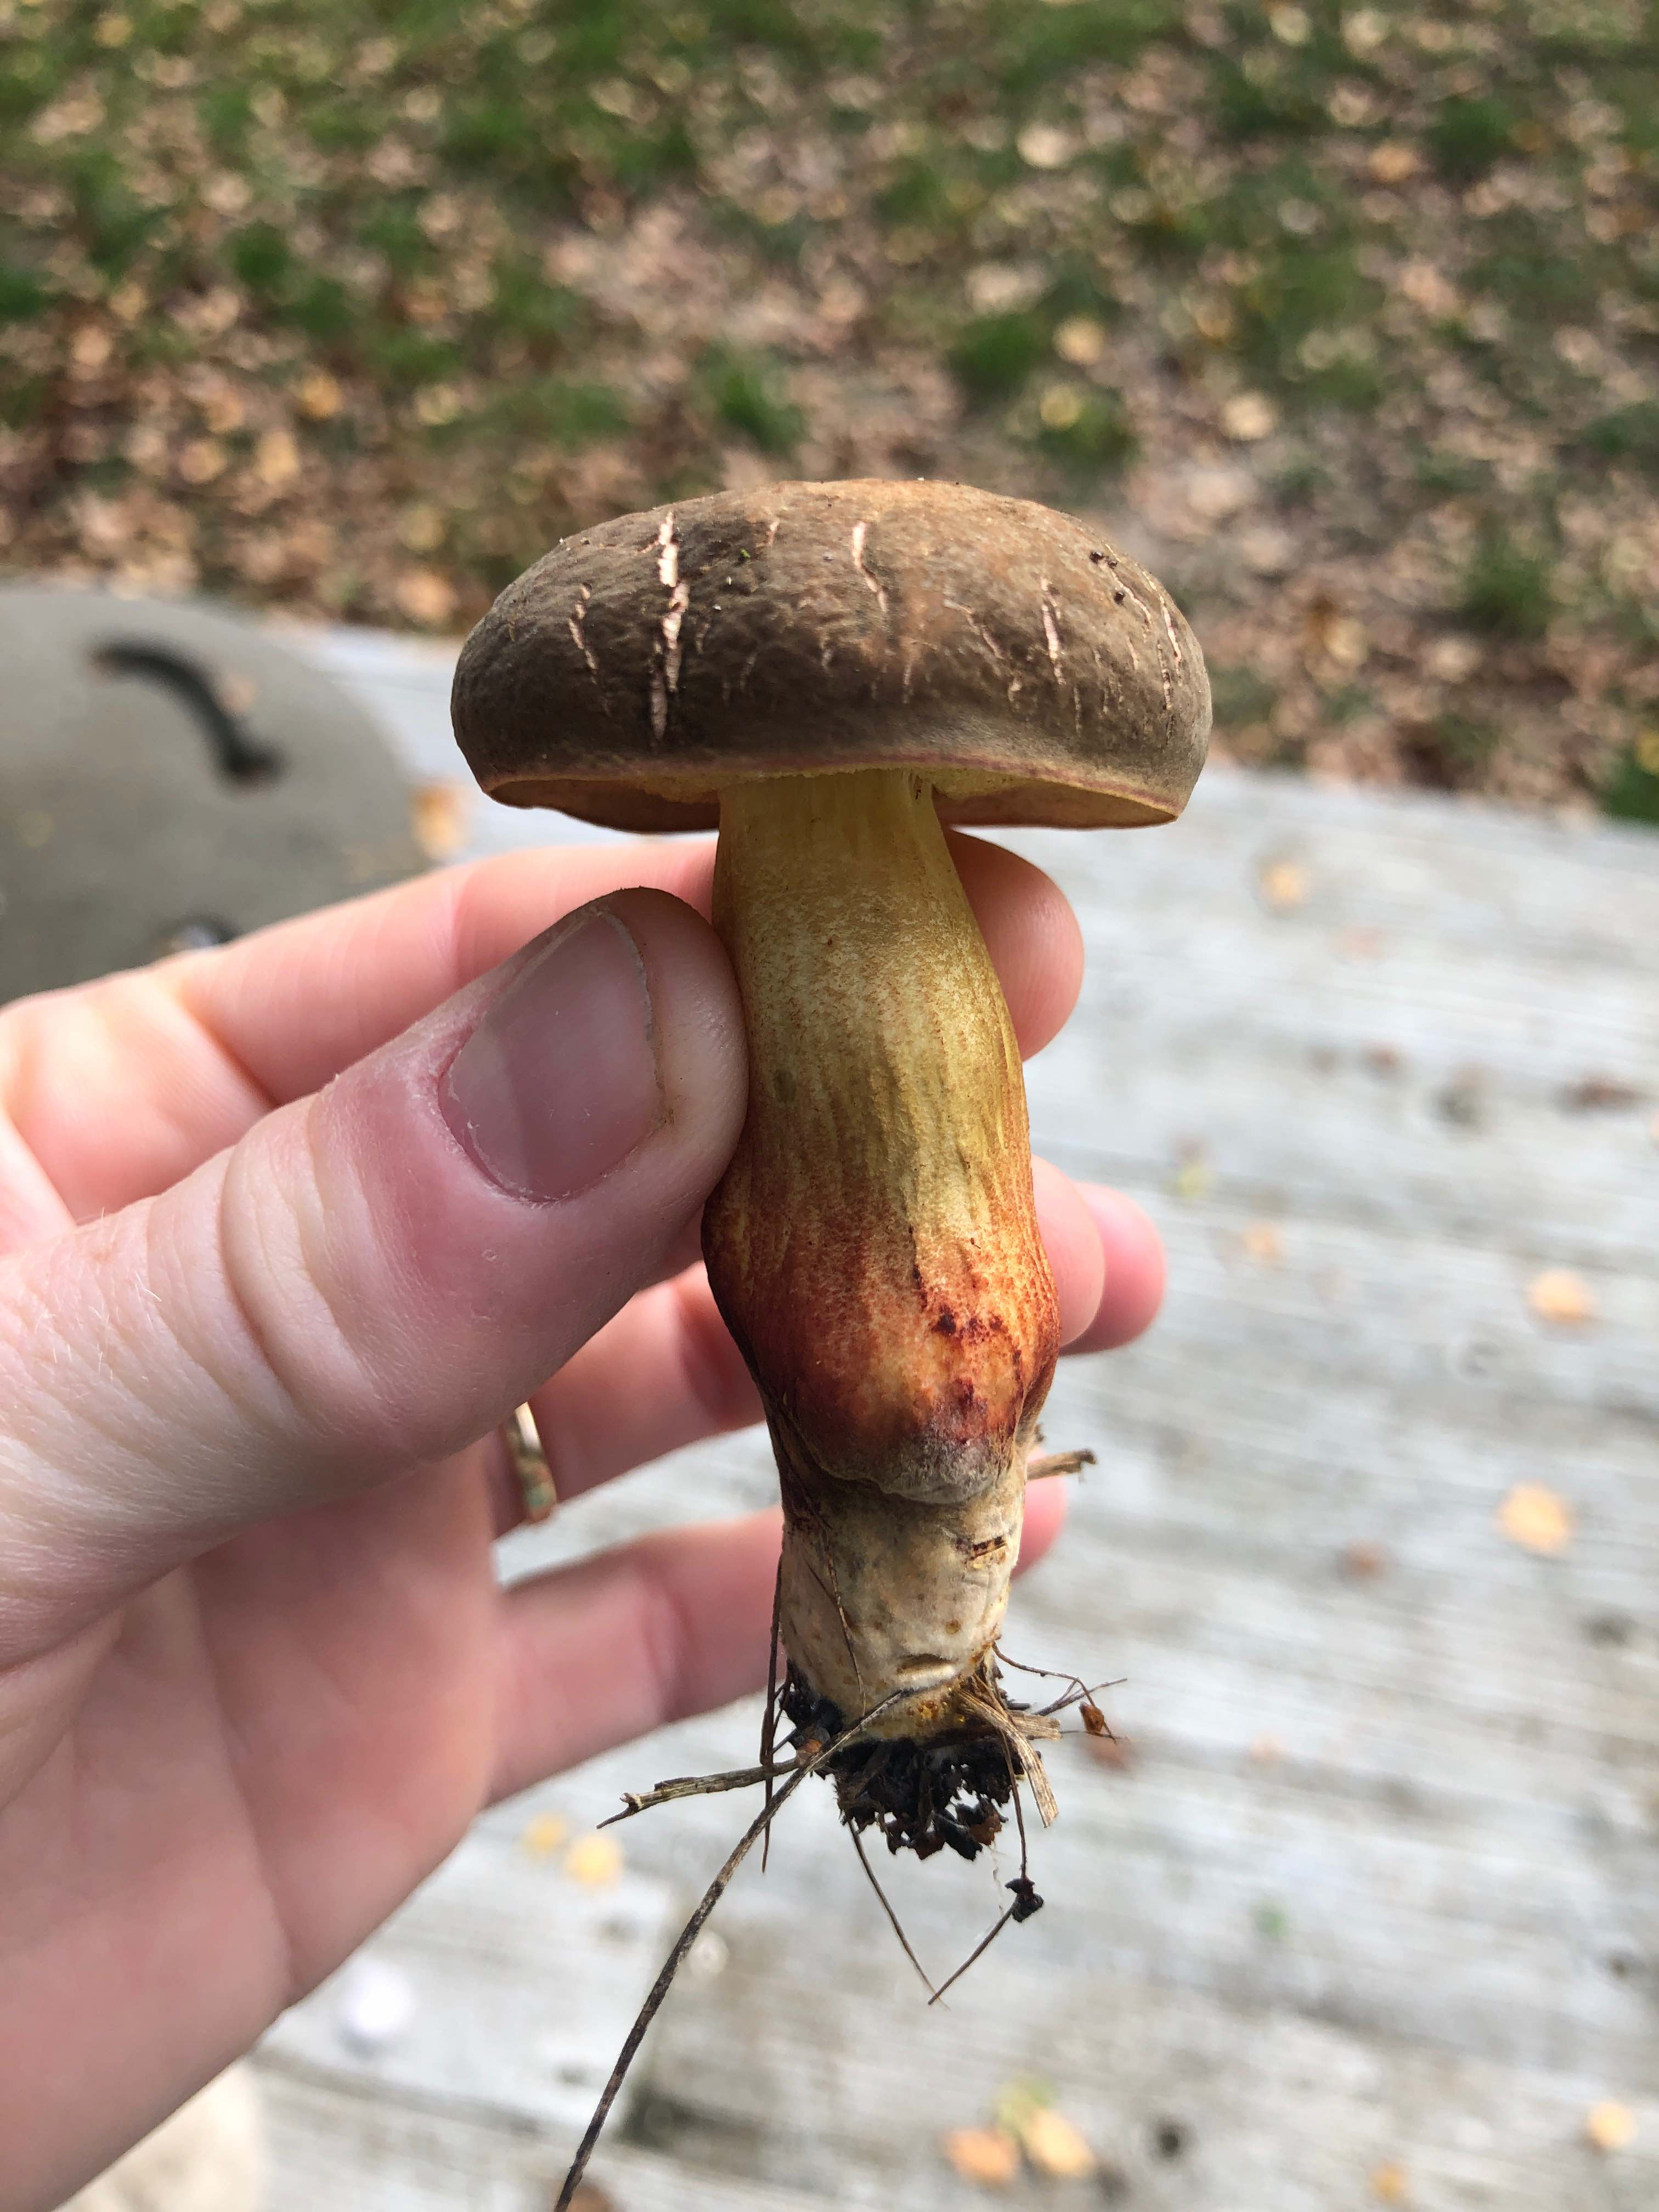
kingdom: Fungi
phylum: Basidiomycota
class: Agaricomycetes
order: Boletales
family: Boletaceae
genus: Xerocomellus
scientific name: Xerocomellus pruinatus
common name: dugget rørhat
